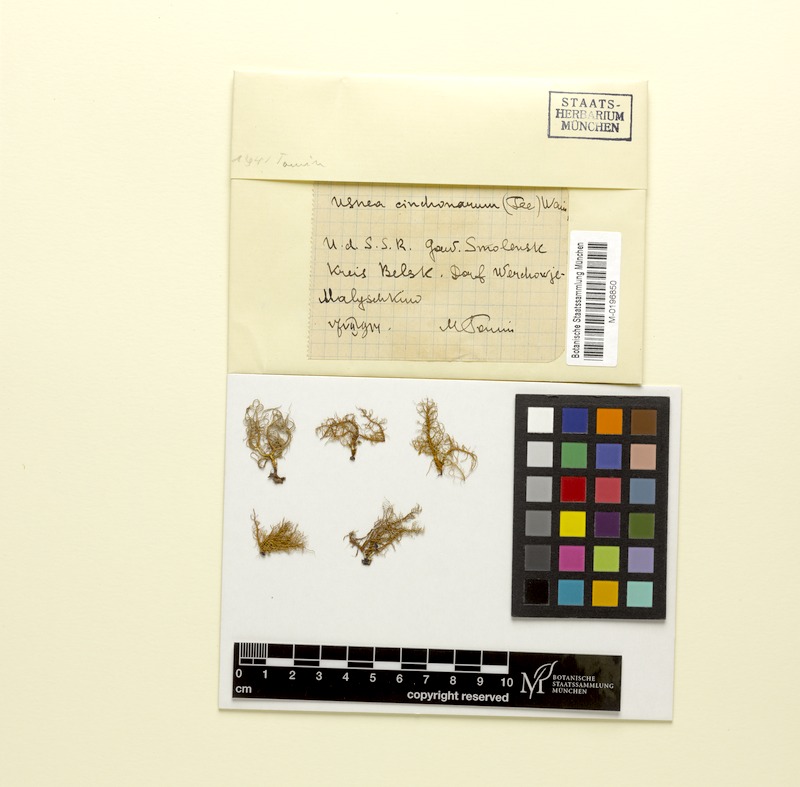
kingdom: Fungi
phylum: Ascomycota
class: Lecanoromycetes
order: Lecanorales
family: Parmeliaceae
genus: Usnea
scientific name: Usnea cinchonae
